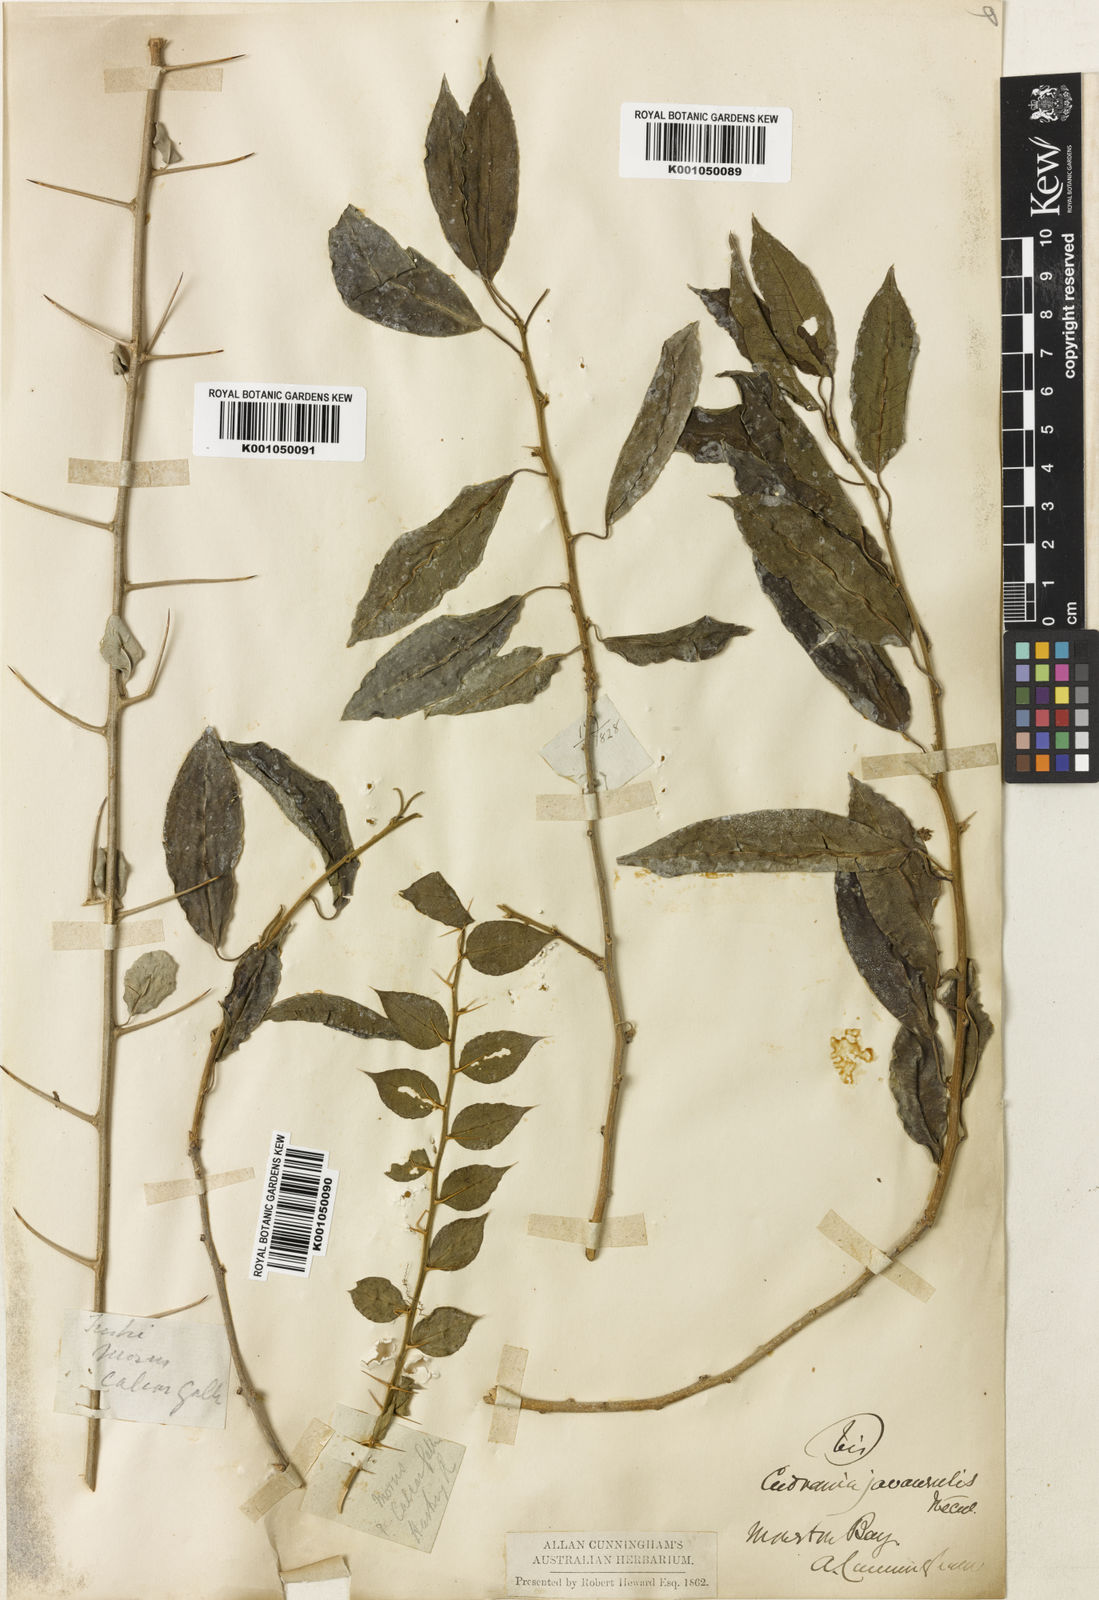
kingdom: Plantae
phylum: Tracheophyta
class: Magnoliopsida
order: Rosales
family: Moraceae
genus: Maclura
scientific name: Maclura cochinchinensis
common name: Cockspurthorn
